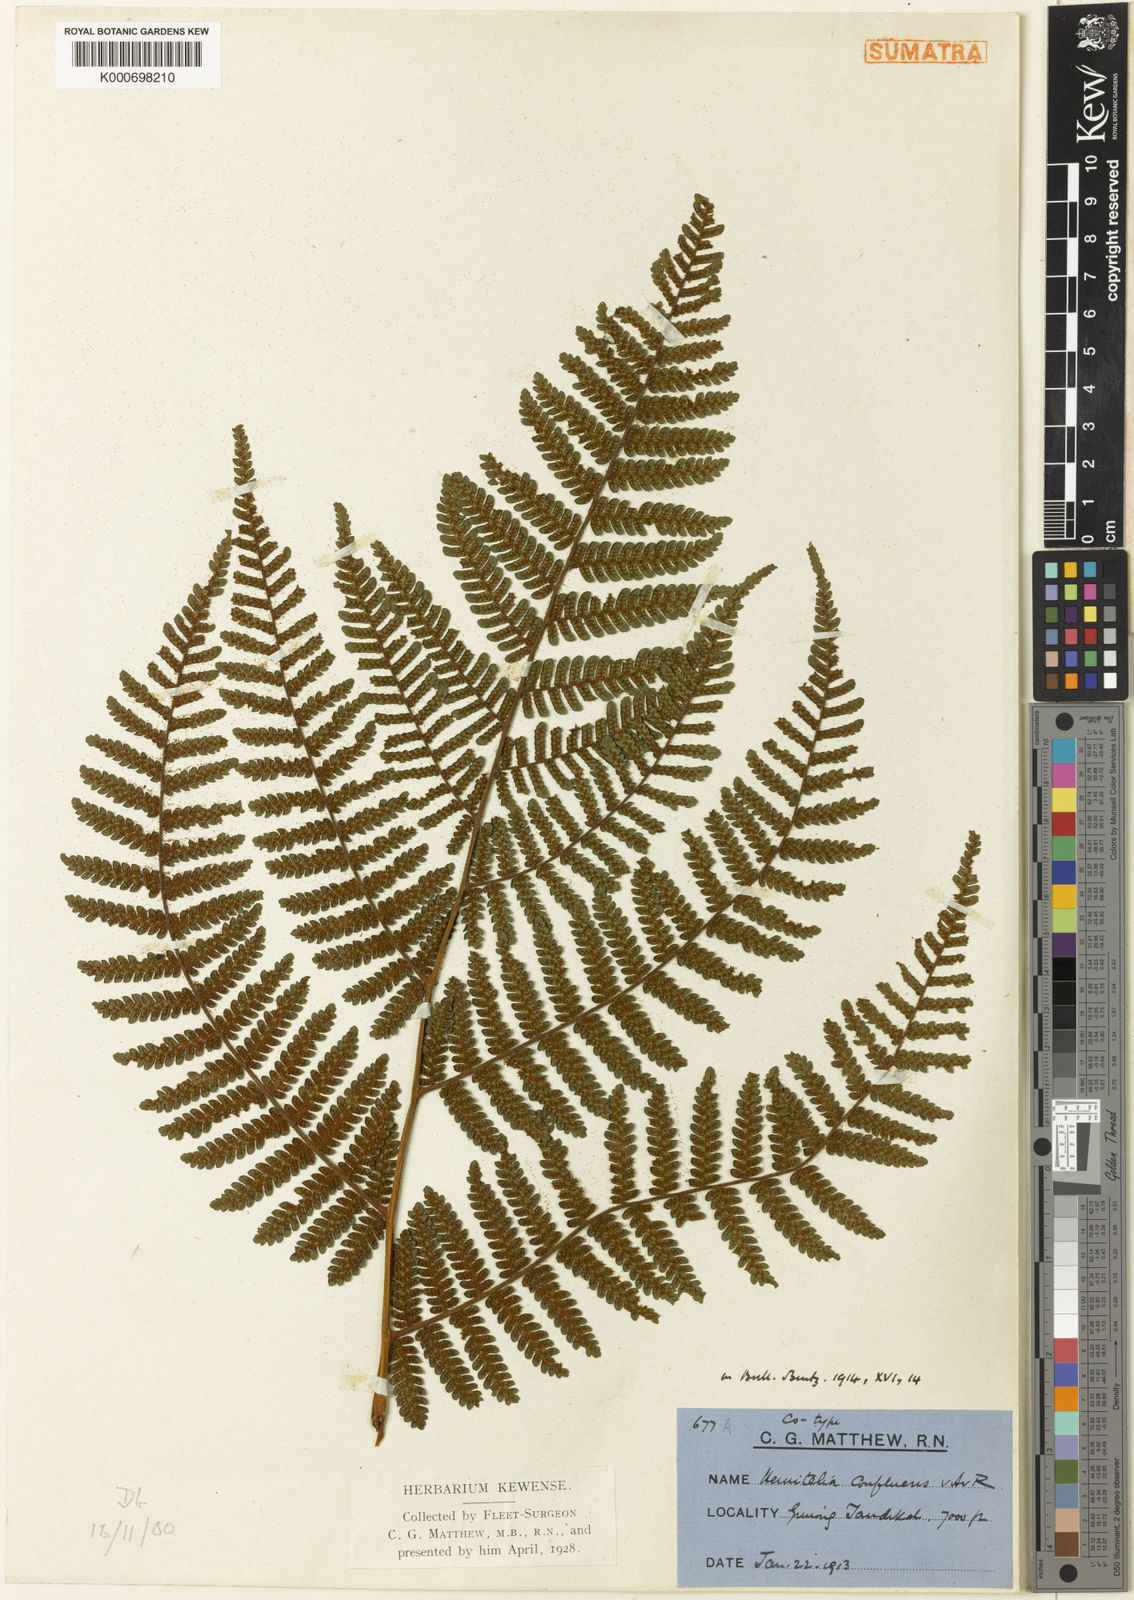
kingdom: Plantae
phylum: Tracheophyta
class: Polypodiopsida
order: Cyatheales
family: Cyatheaceae
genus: Alsophila
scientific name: Alsophila modesta
